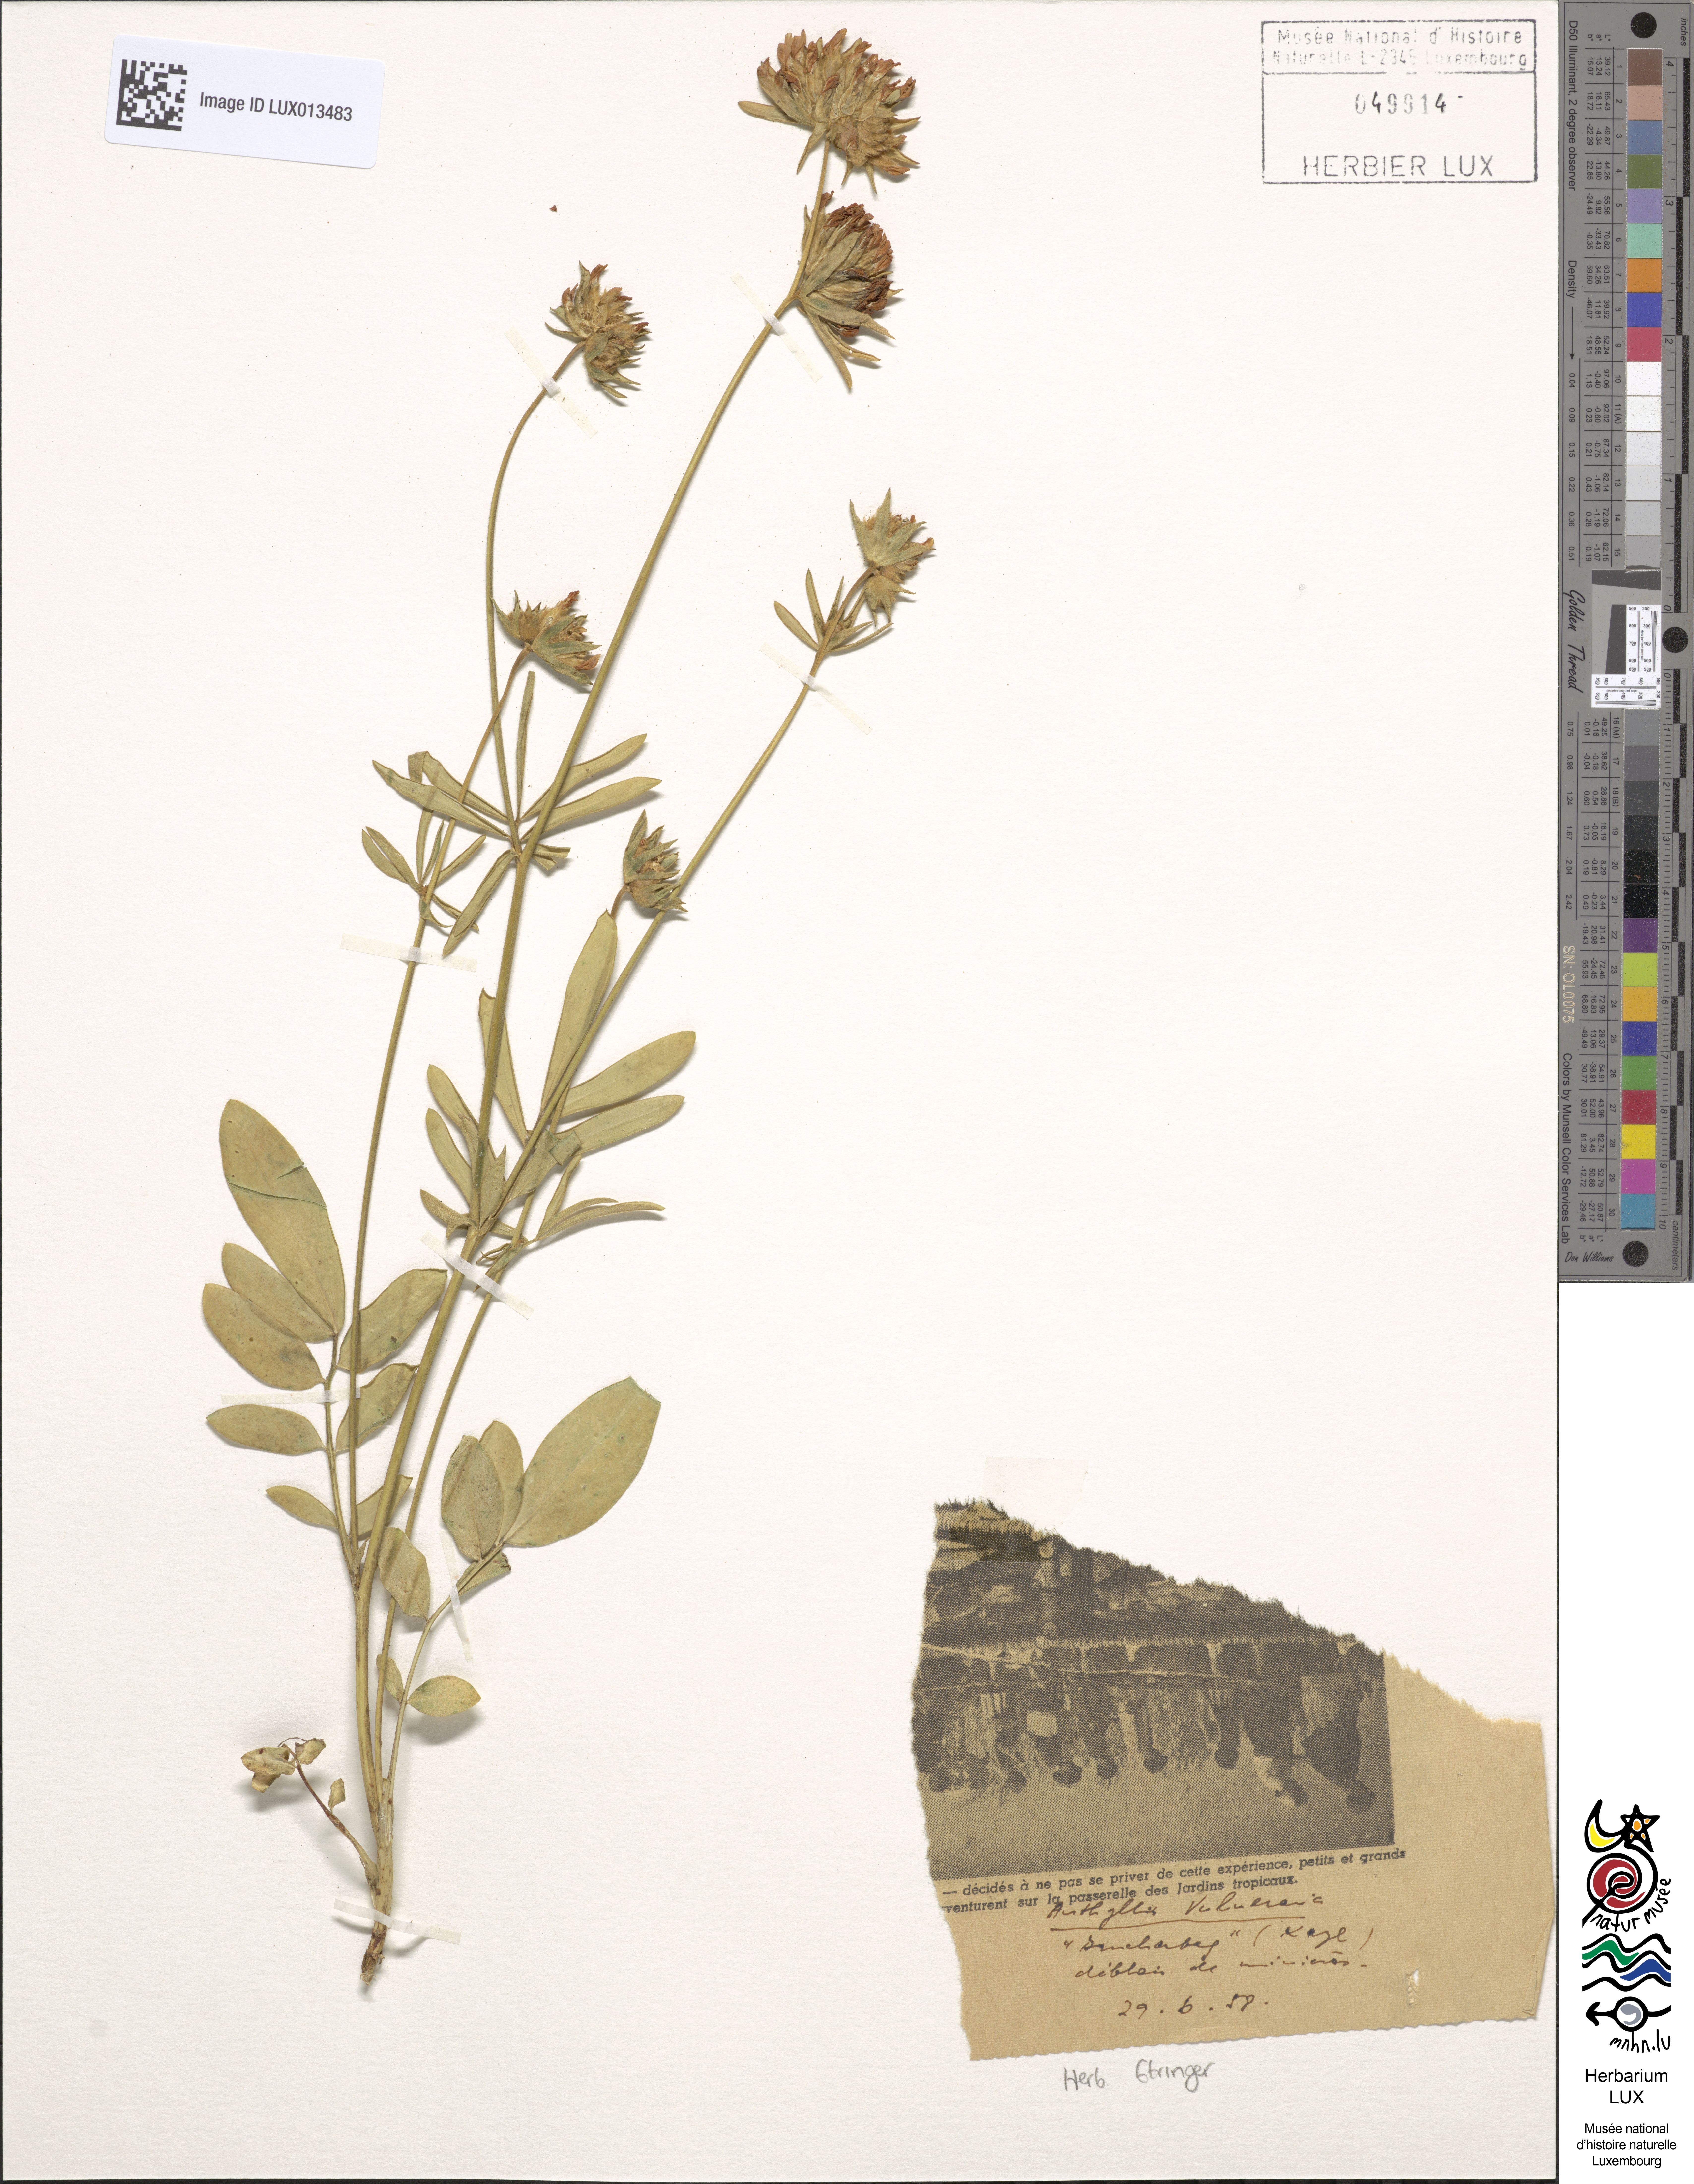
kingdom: Plantae
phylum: Tracheophyta
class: Magnoliopsida
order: Fabales
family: Fabaceae
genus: Anthyllis
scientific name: Anthyllis vulneraria
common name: Kidney vetch
